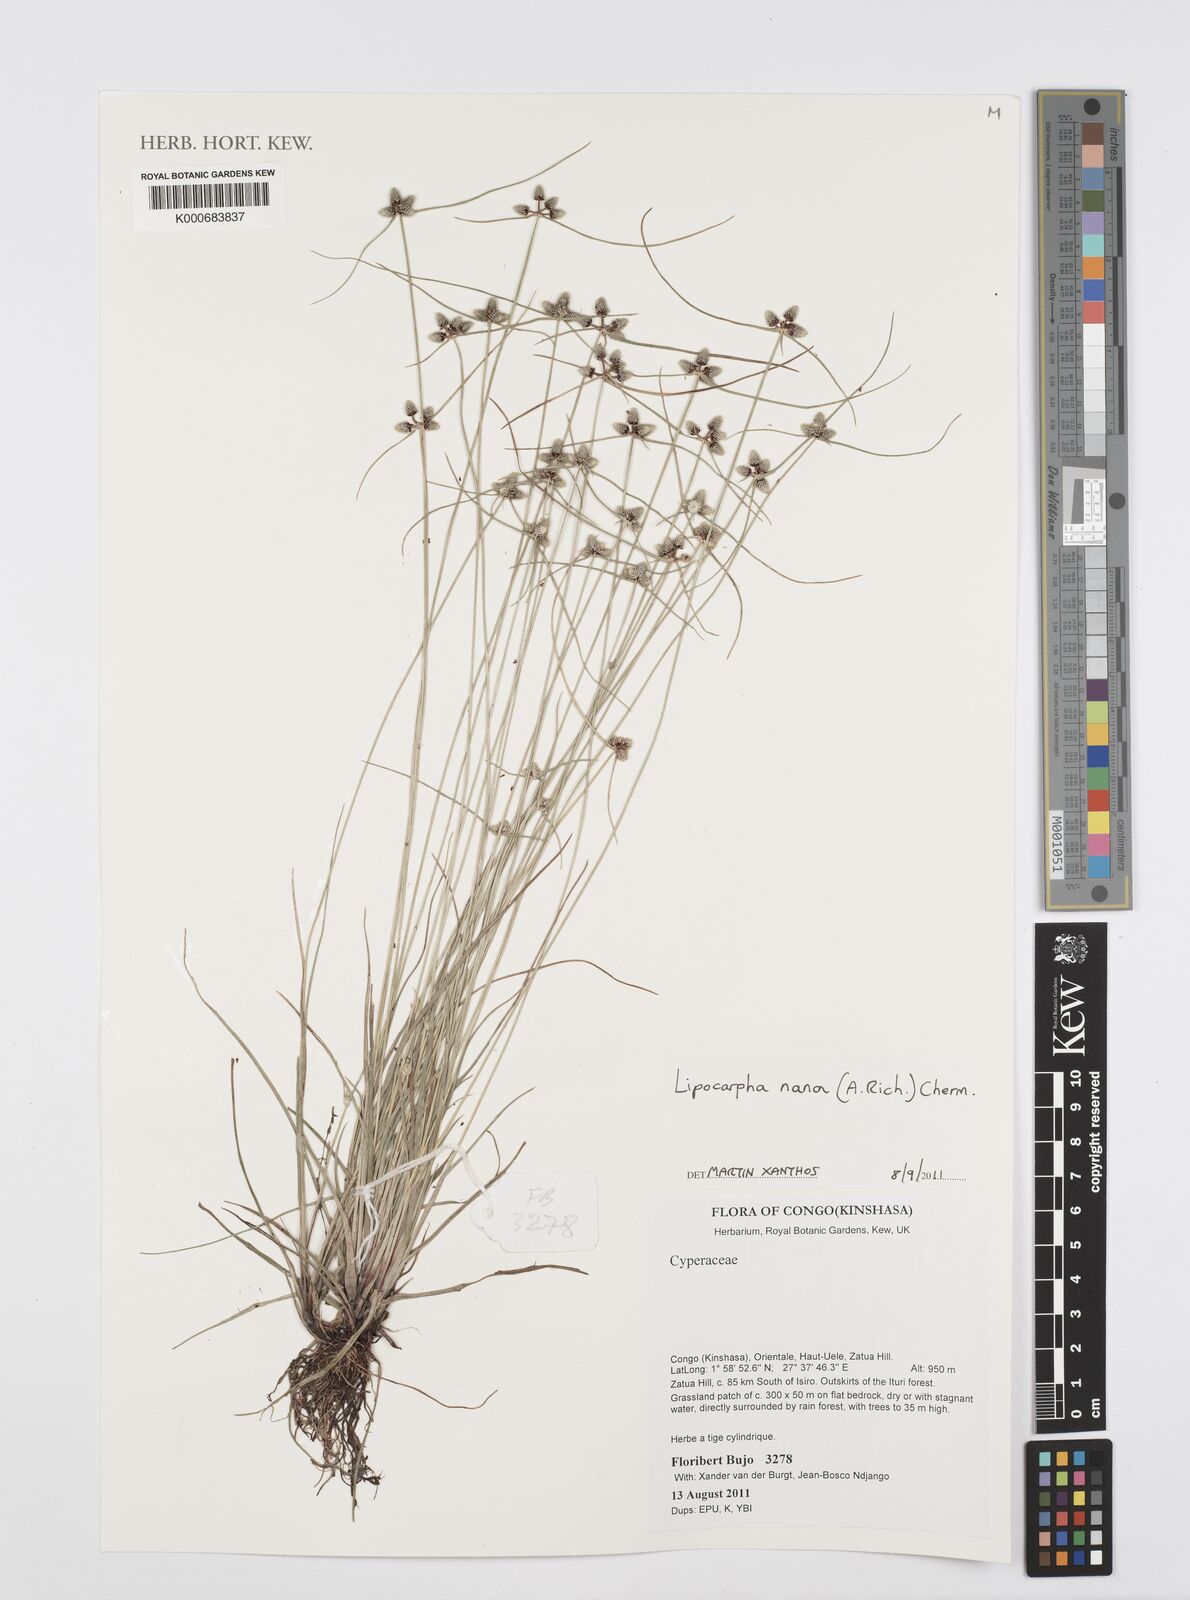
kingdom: Plantae
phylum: Tracheophyta
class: Liliopsida
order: Poales
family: Cyperaceae
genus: Cyperus
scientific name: Cyperus persquarrosus
